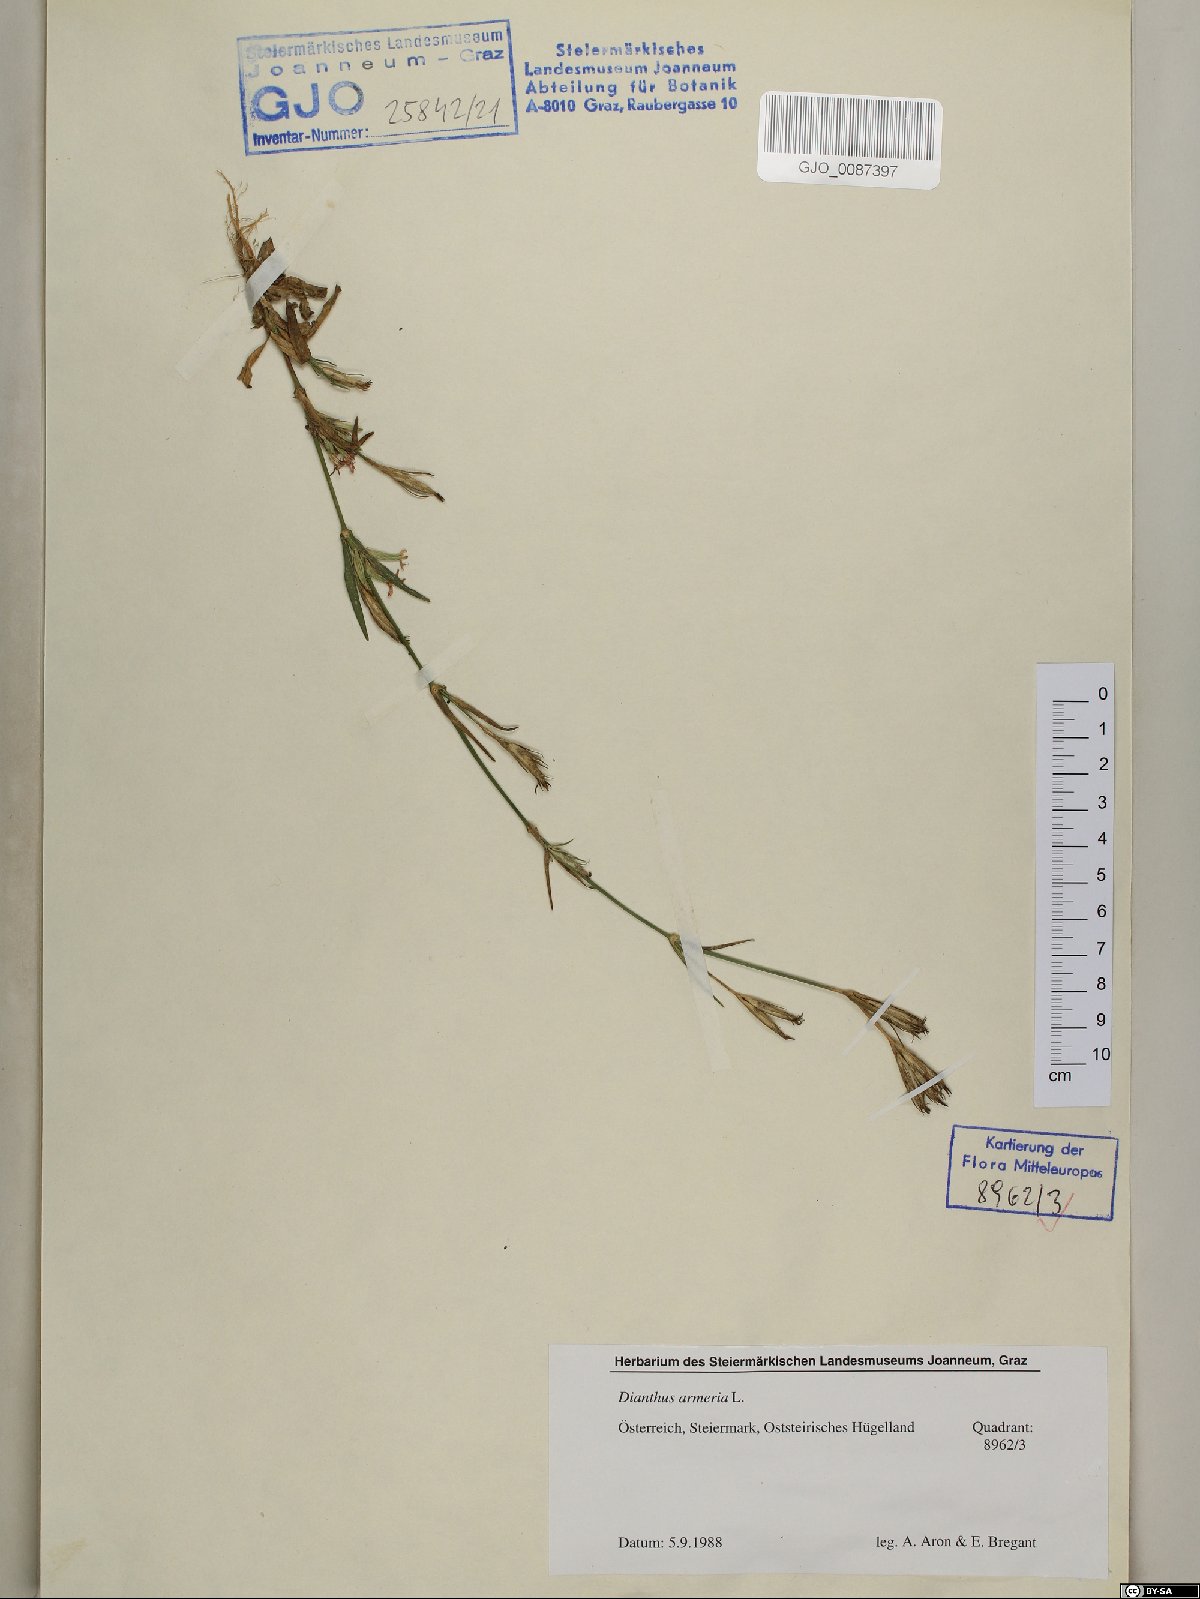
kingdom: Plantae
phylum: Tracheophyta
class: Magnoliopsida
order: Caryophyllales
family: Caryophyllaceae
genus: Dianthus
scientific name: Dianthus armeria
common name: Deptford pink
